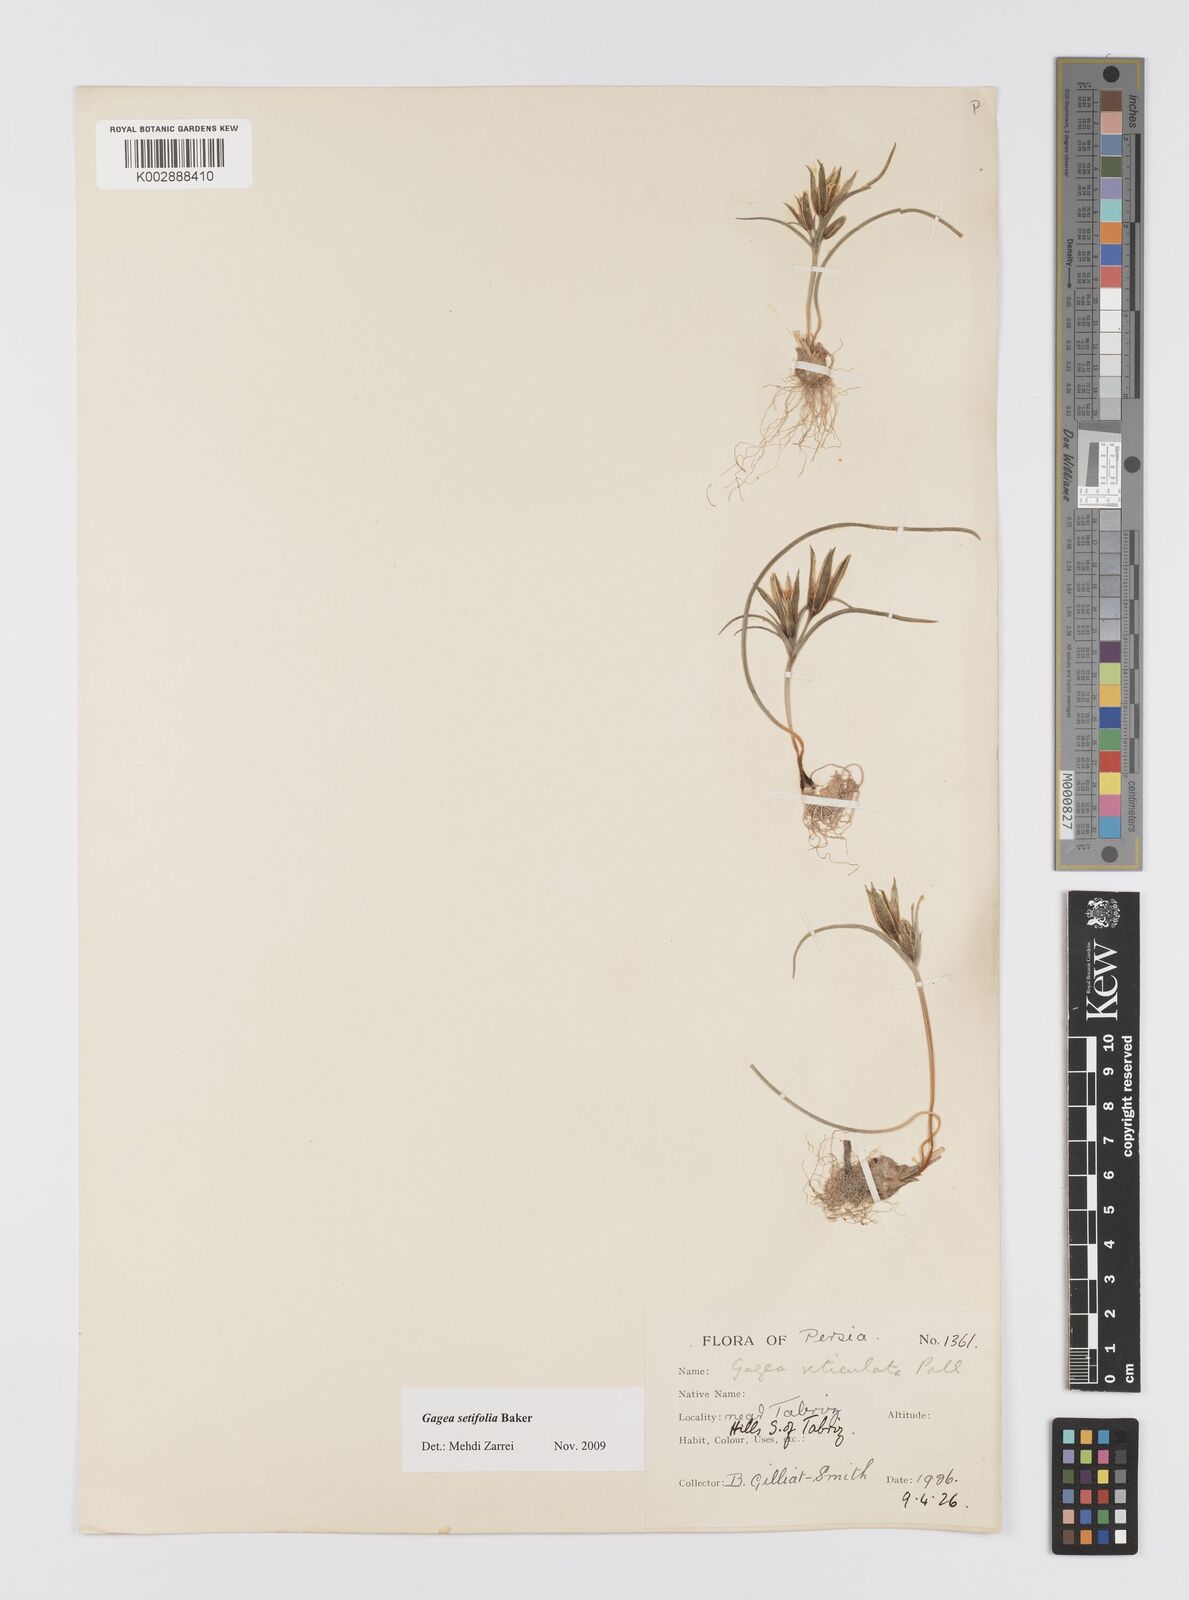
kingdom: Plantae
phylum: Tracheophyta
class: Liliopsida
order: Liliales
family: Liliaceae
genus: Gagea
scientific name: Gagea setifolia
